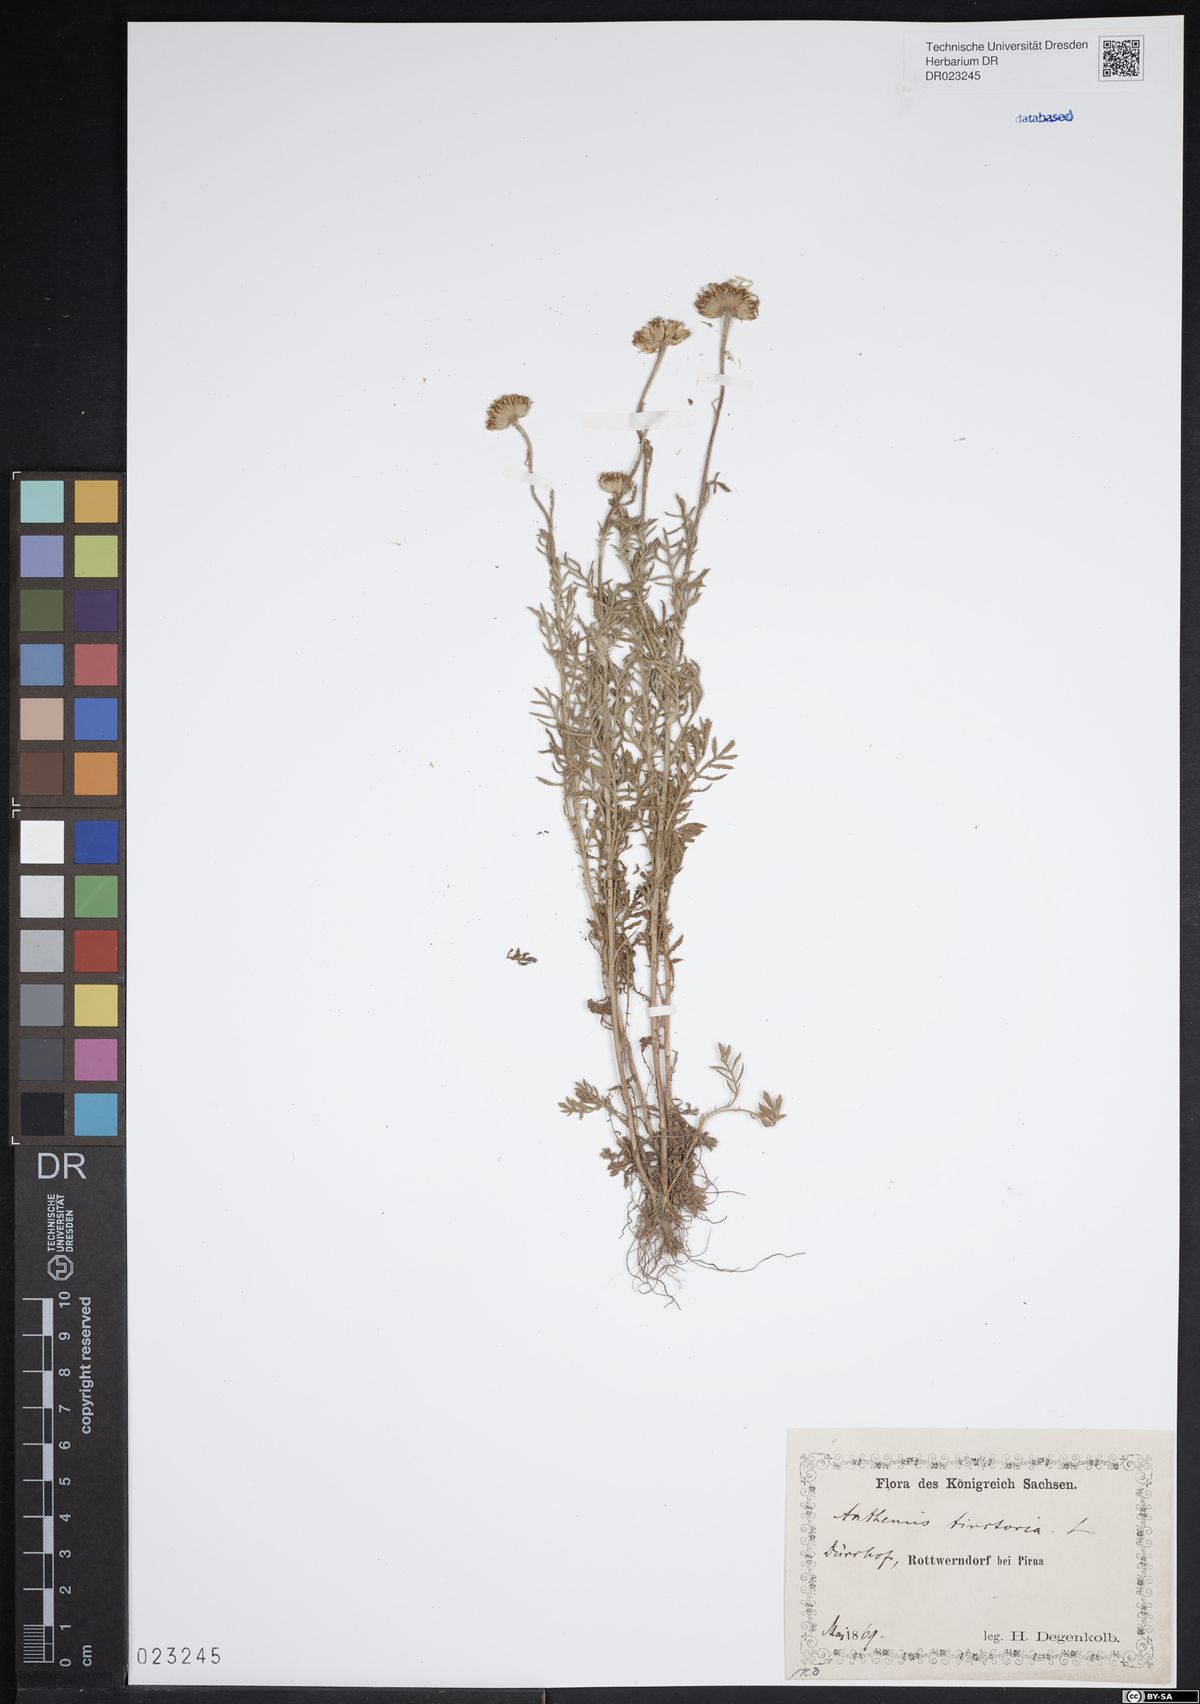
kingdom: Plantae
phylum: Tracheophyta
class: Magnoliopsida
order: Asterales
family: Asteraceae
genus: Cota
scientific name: Cota tinctoria
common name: Golden chamomile
